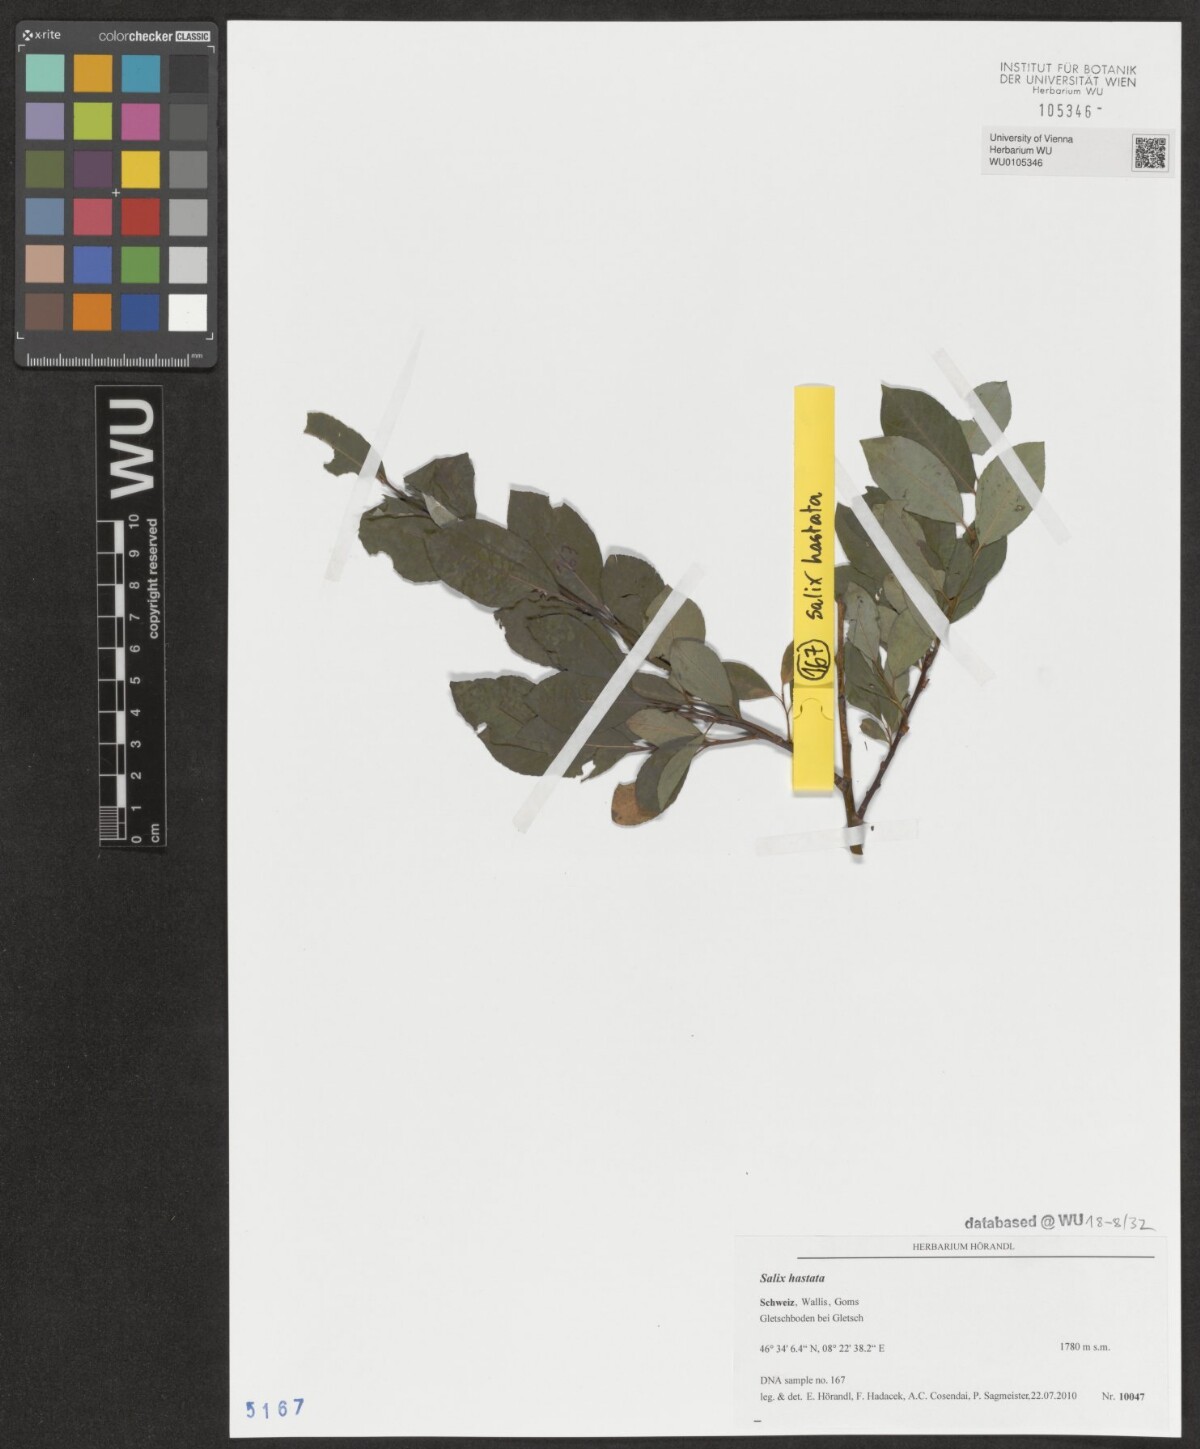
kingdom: Plantae
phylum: Tracheophyta
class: Magnoliopsida
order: Malpighiales
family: Salicaceae
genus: Salix
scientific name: Salix hastata
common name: Halberd willow
